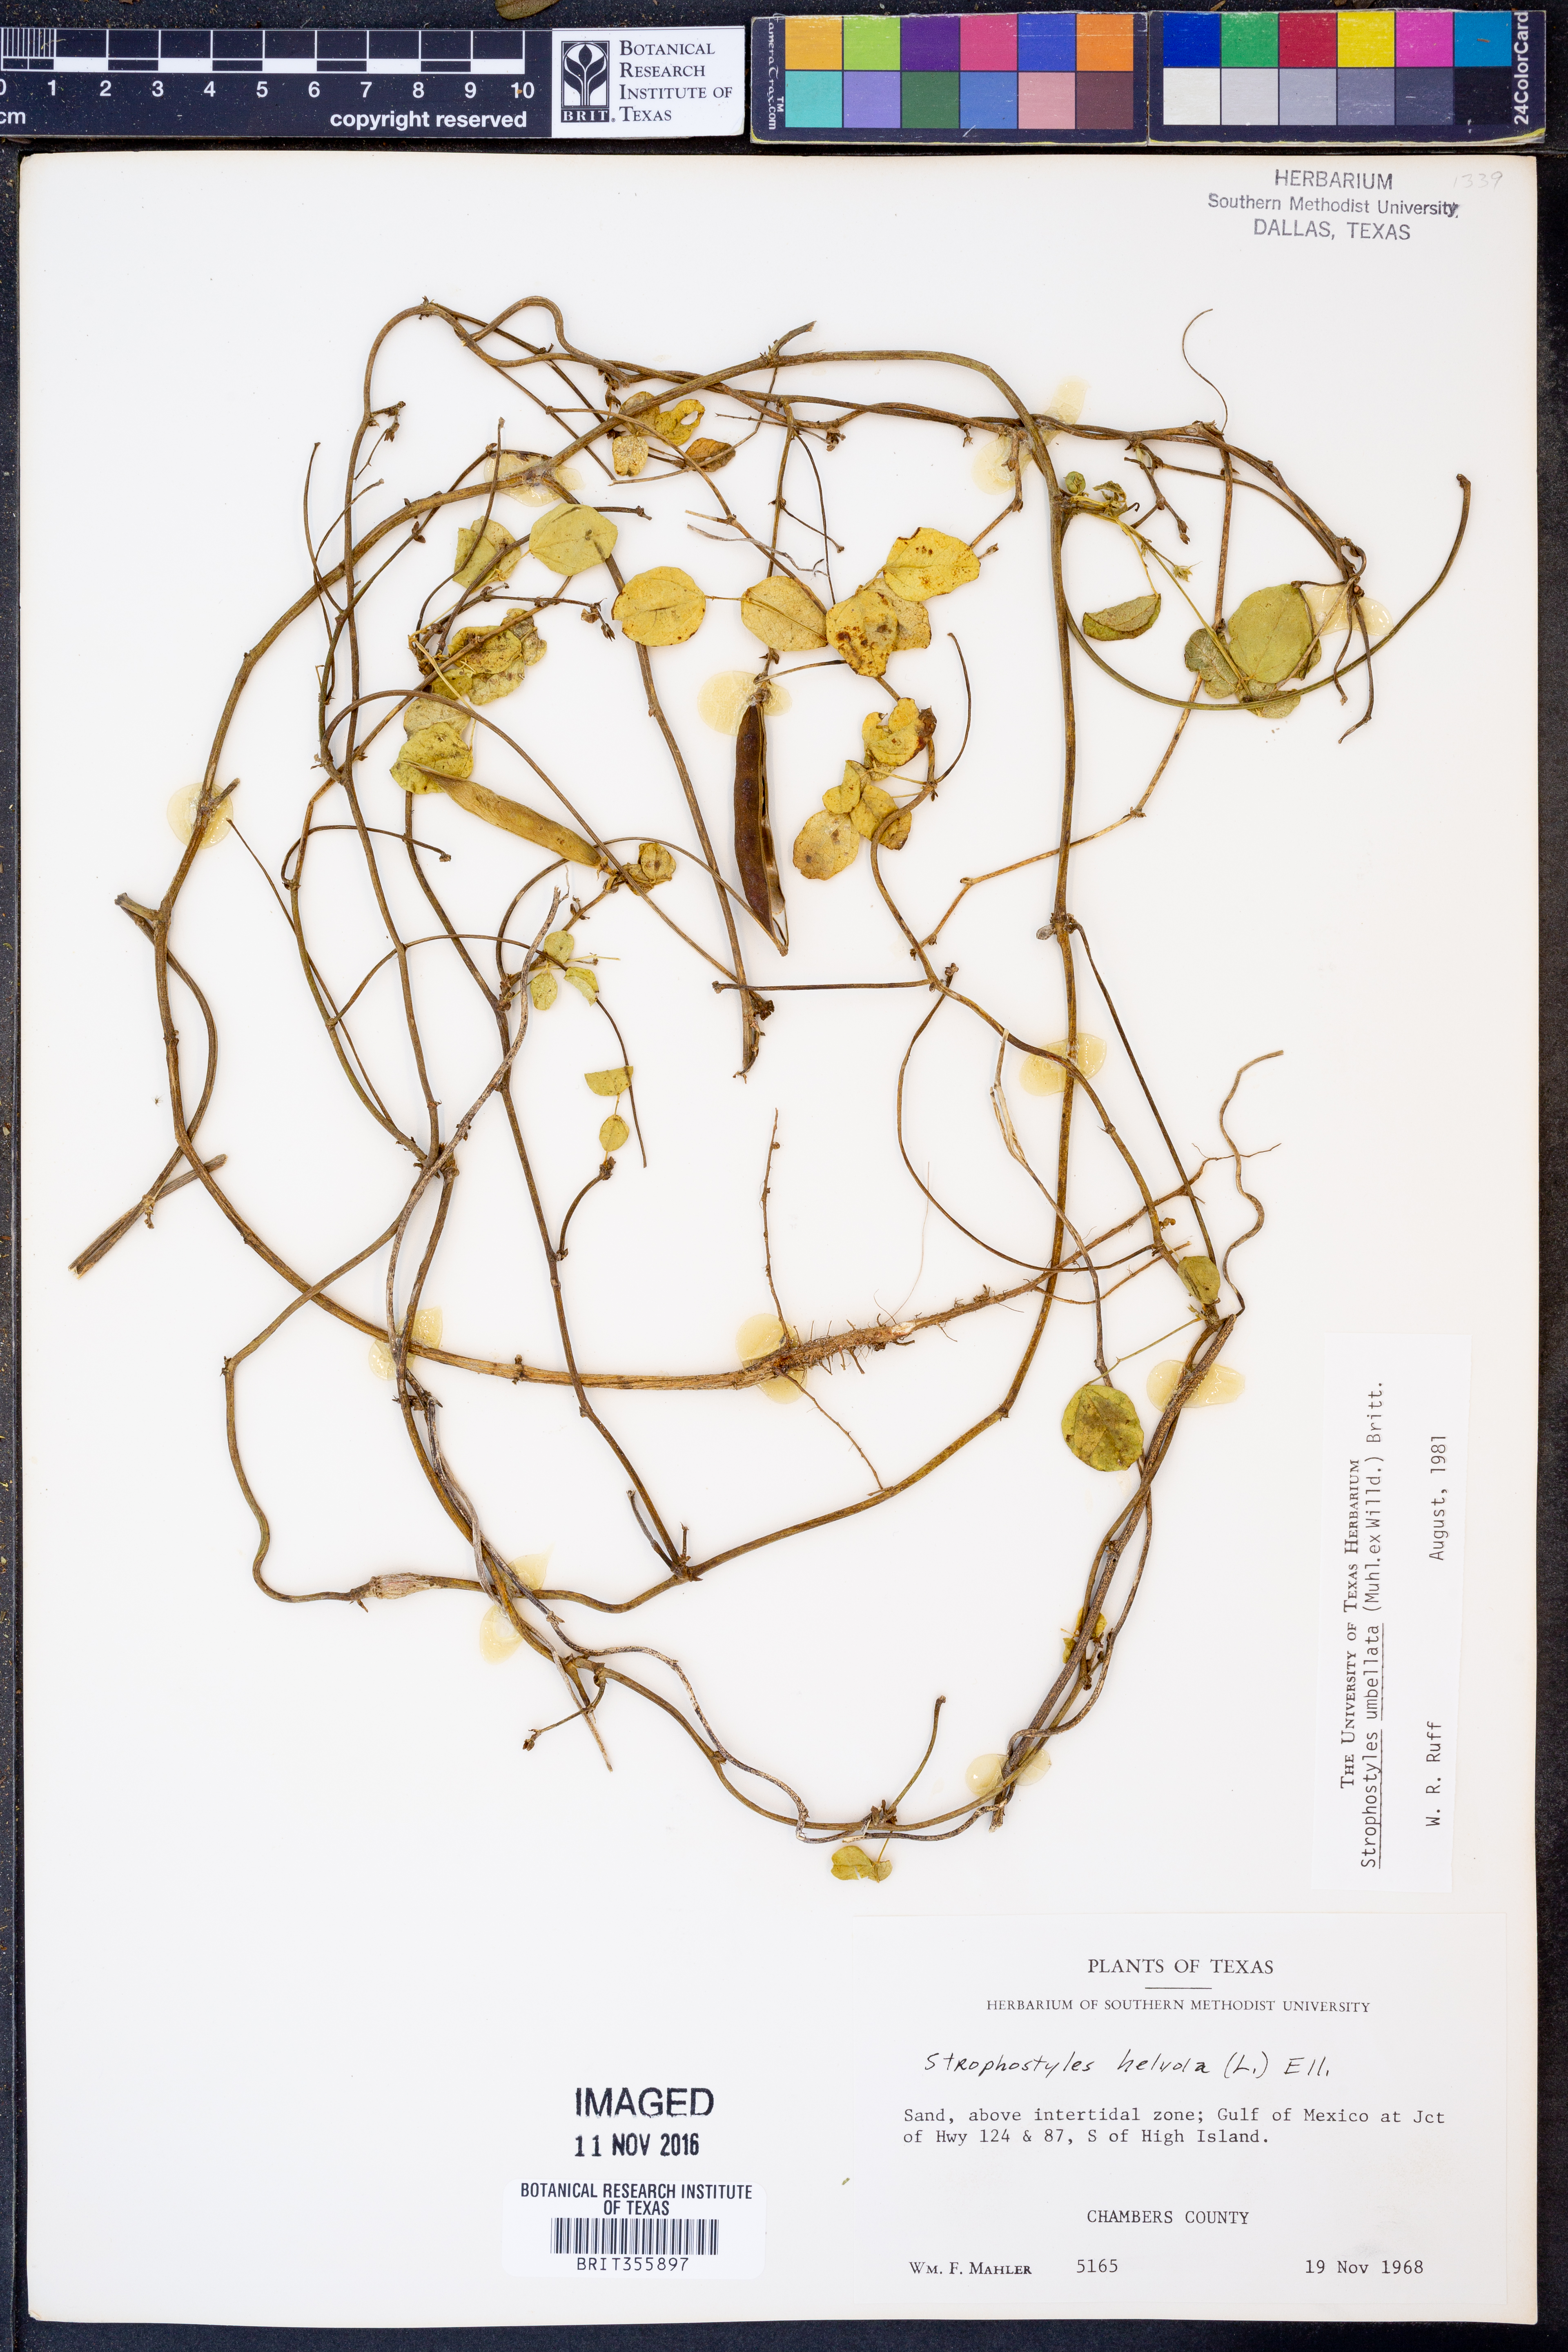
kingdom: Plantae
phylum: Tracheophyta
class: Magnoliopsida
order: Fabales
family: Fabaceae
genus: Strophostyles
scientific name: Strophostyles umbellata
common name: Perennial wild bean
